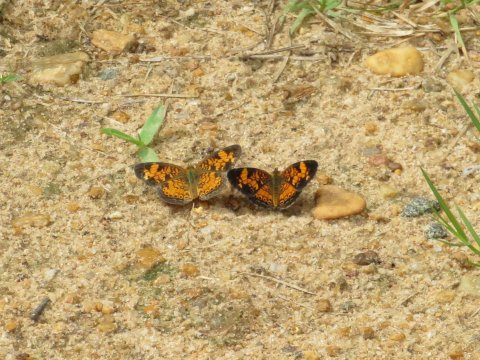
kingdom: Animalia
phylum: Arthropoda
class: Insecta
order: Lepidoptera
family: Nymphalidae
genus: Phyciodes
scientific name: Phyciodes tharos
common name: Pearl Crescent
